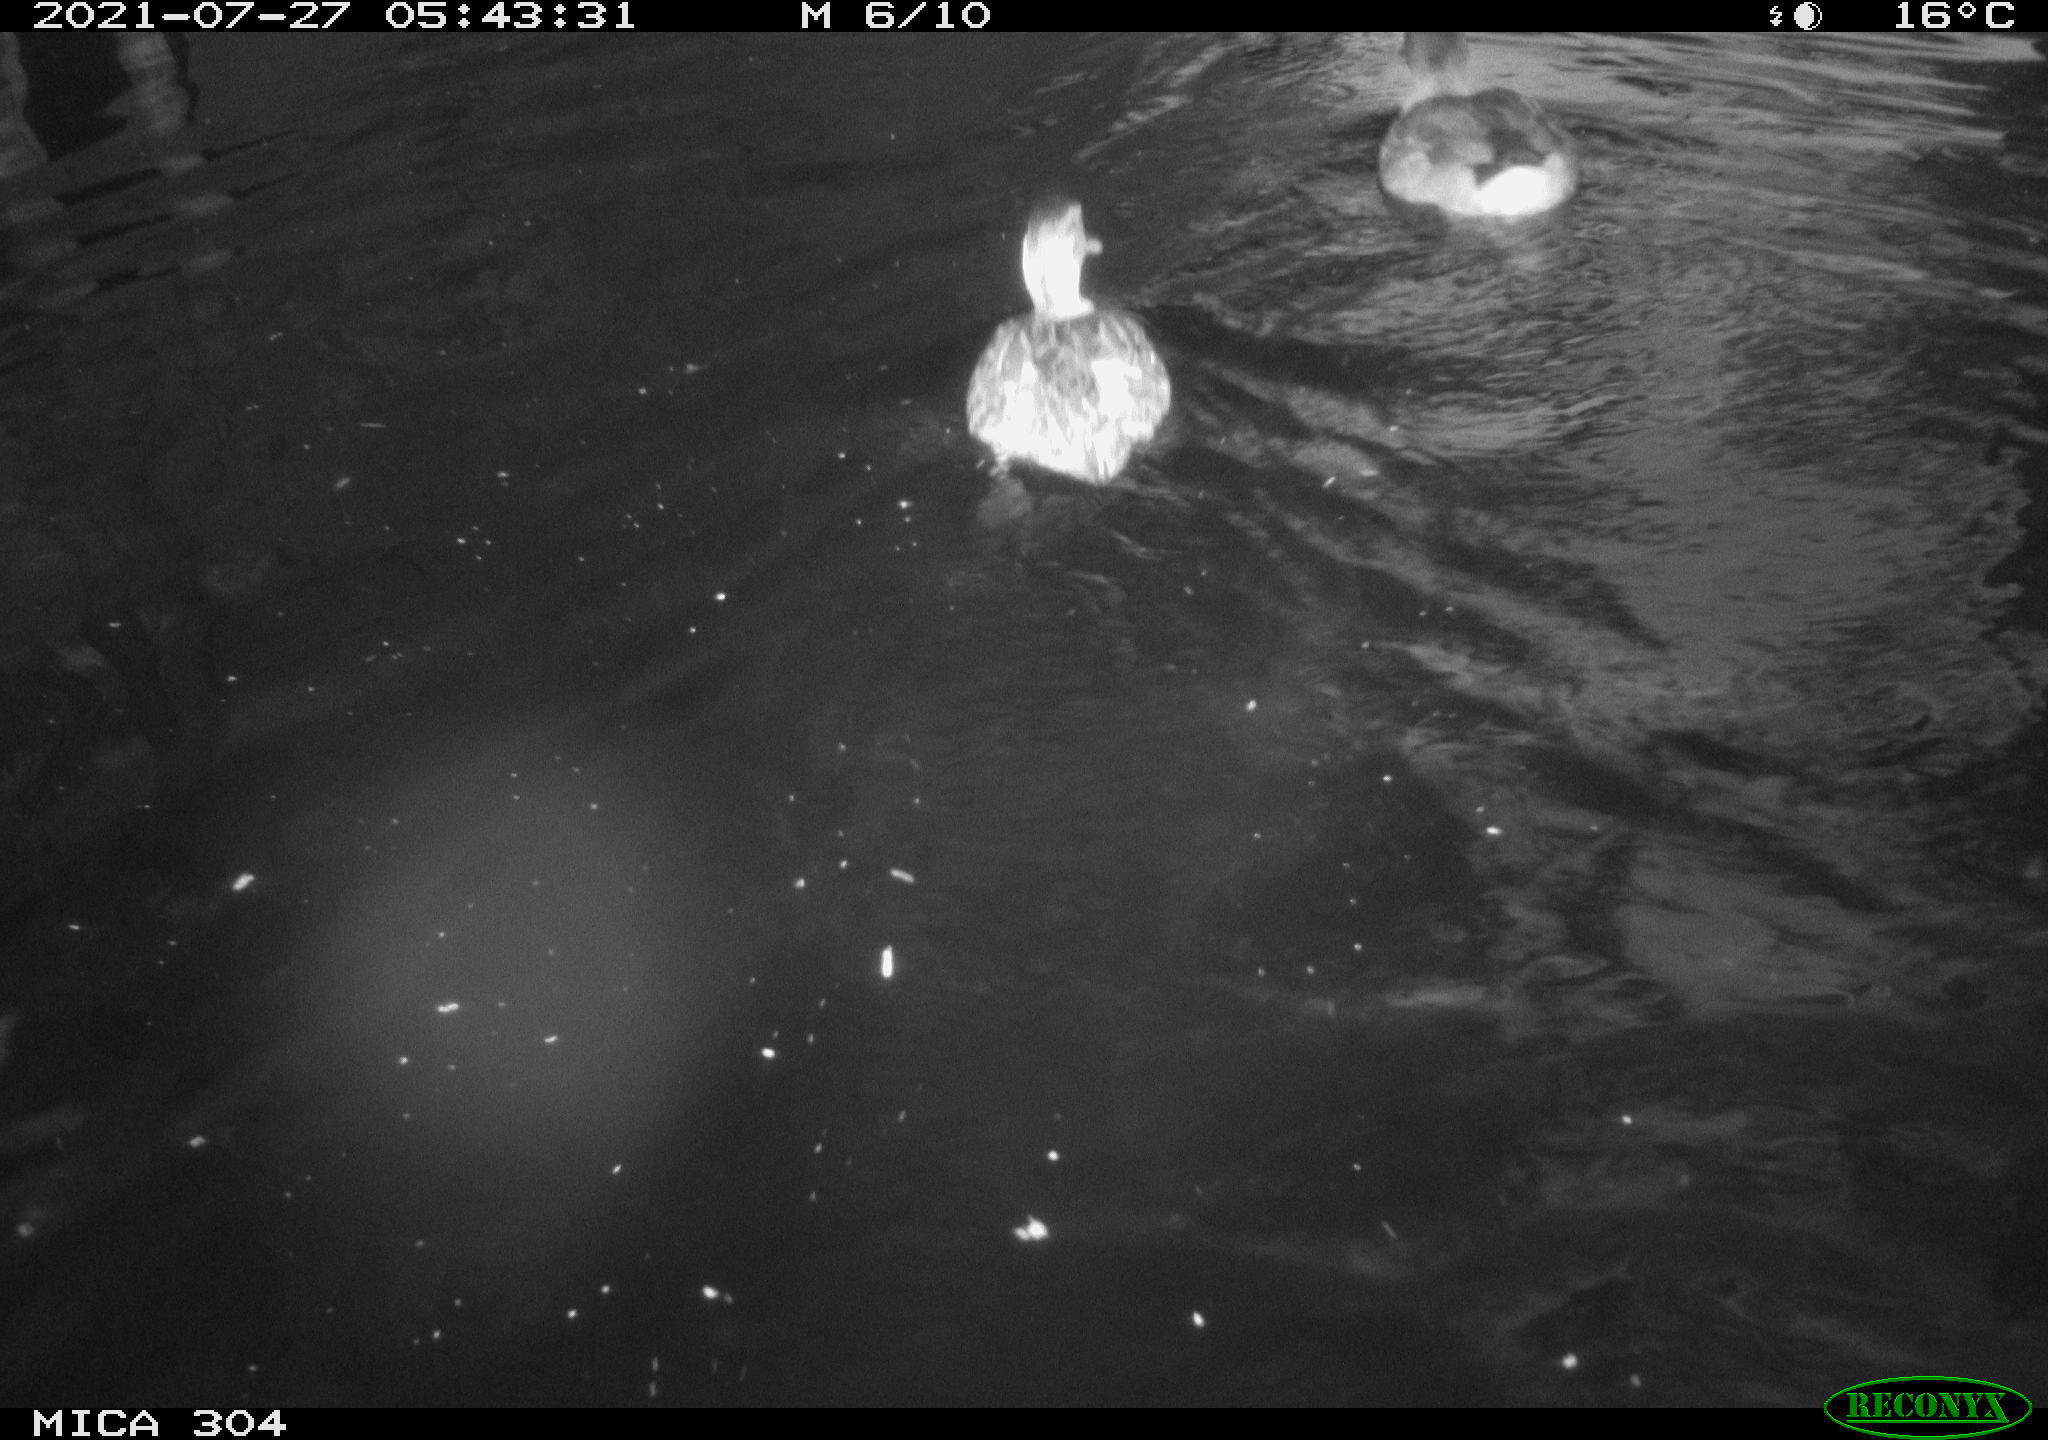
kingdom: Animalia
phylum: Chordata
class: Aves
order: Anseriformes
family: Anatidae
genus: Mareca
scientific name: Mareca strepera
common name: Gadwall
